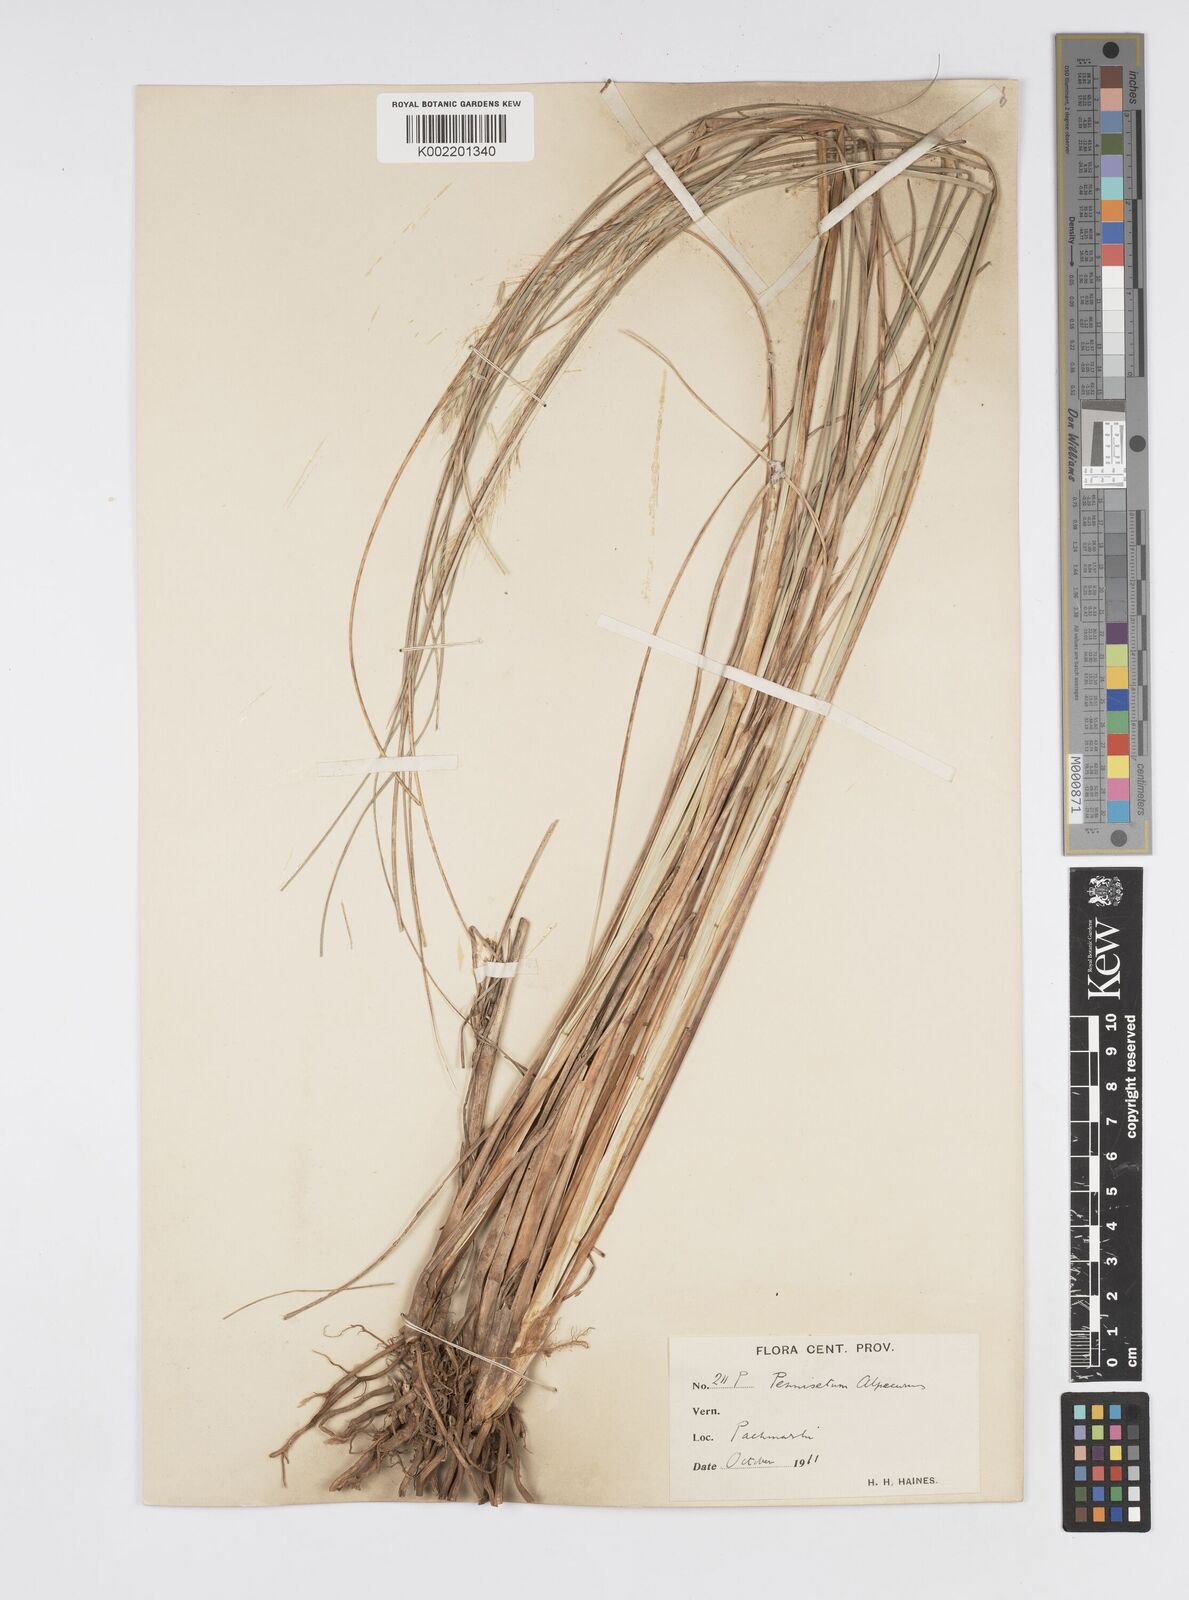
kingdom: Plantae
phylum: Tracheophyta
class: Liliopsida
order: Poales
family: Poaceae
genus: Cenchrus
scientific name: Cenchrus hohenackeri
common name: Moya grass
